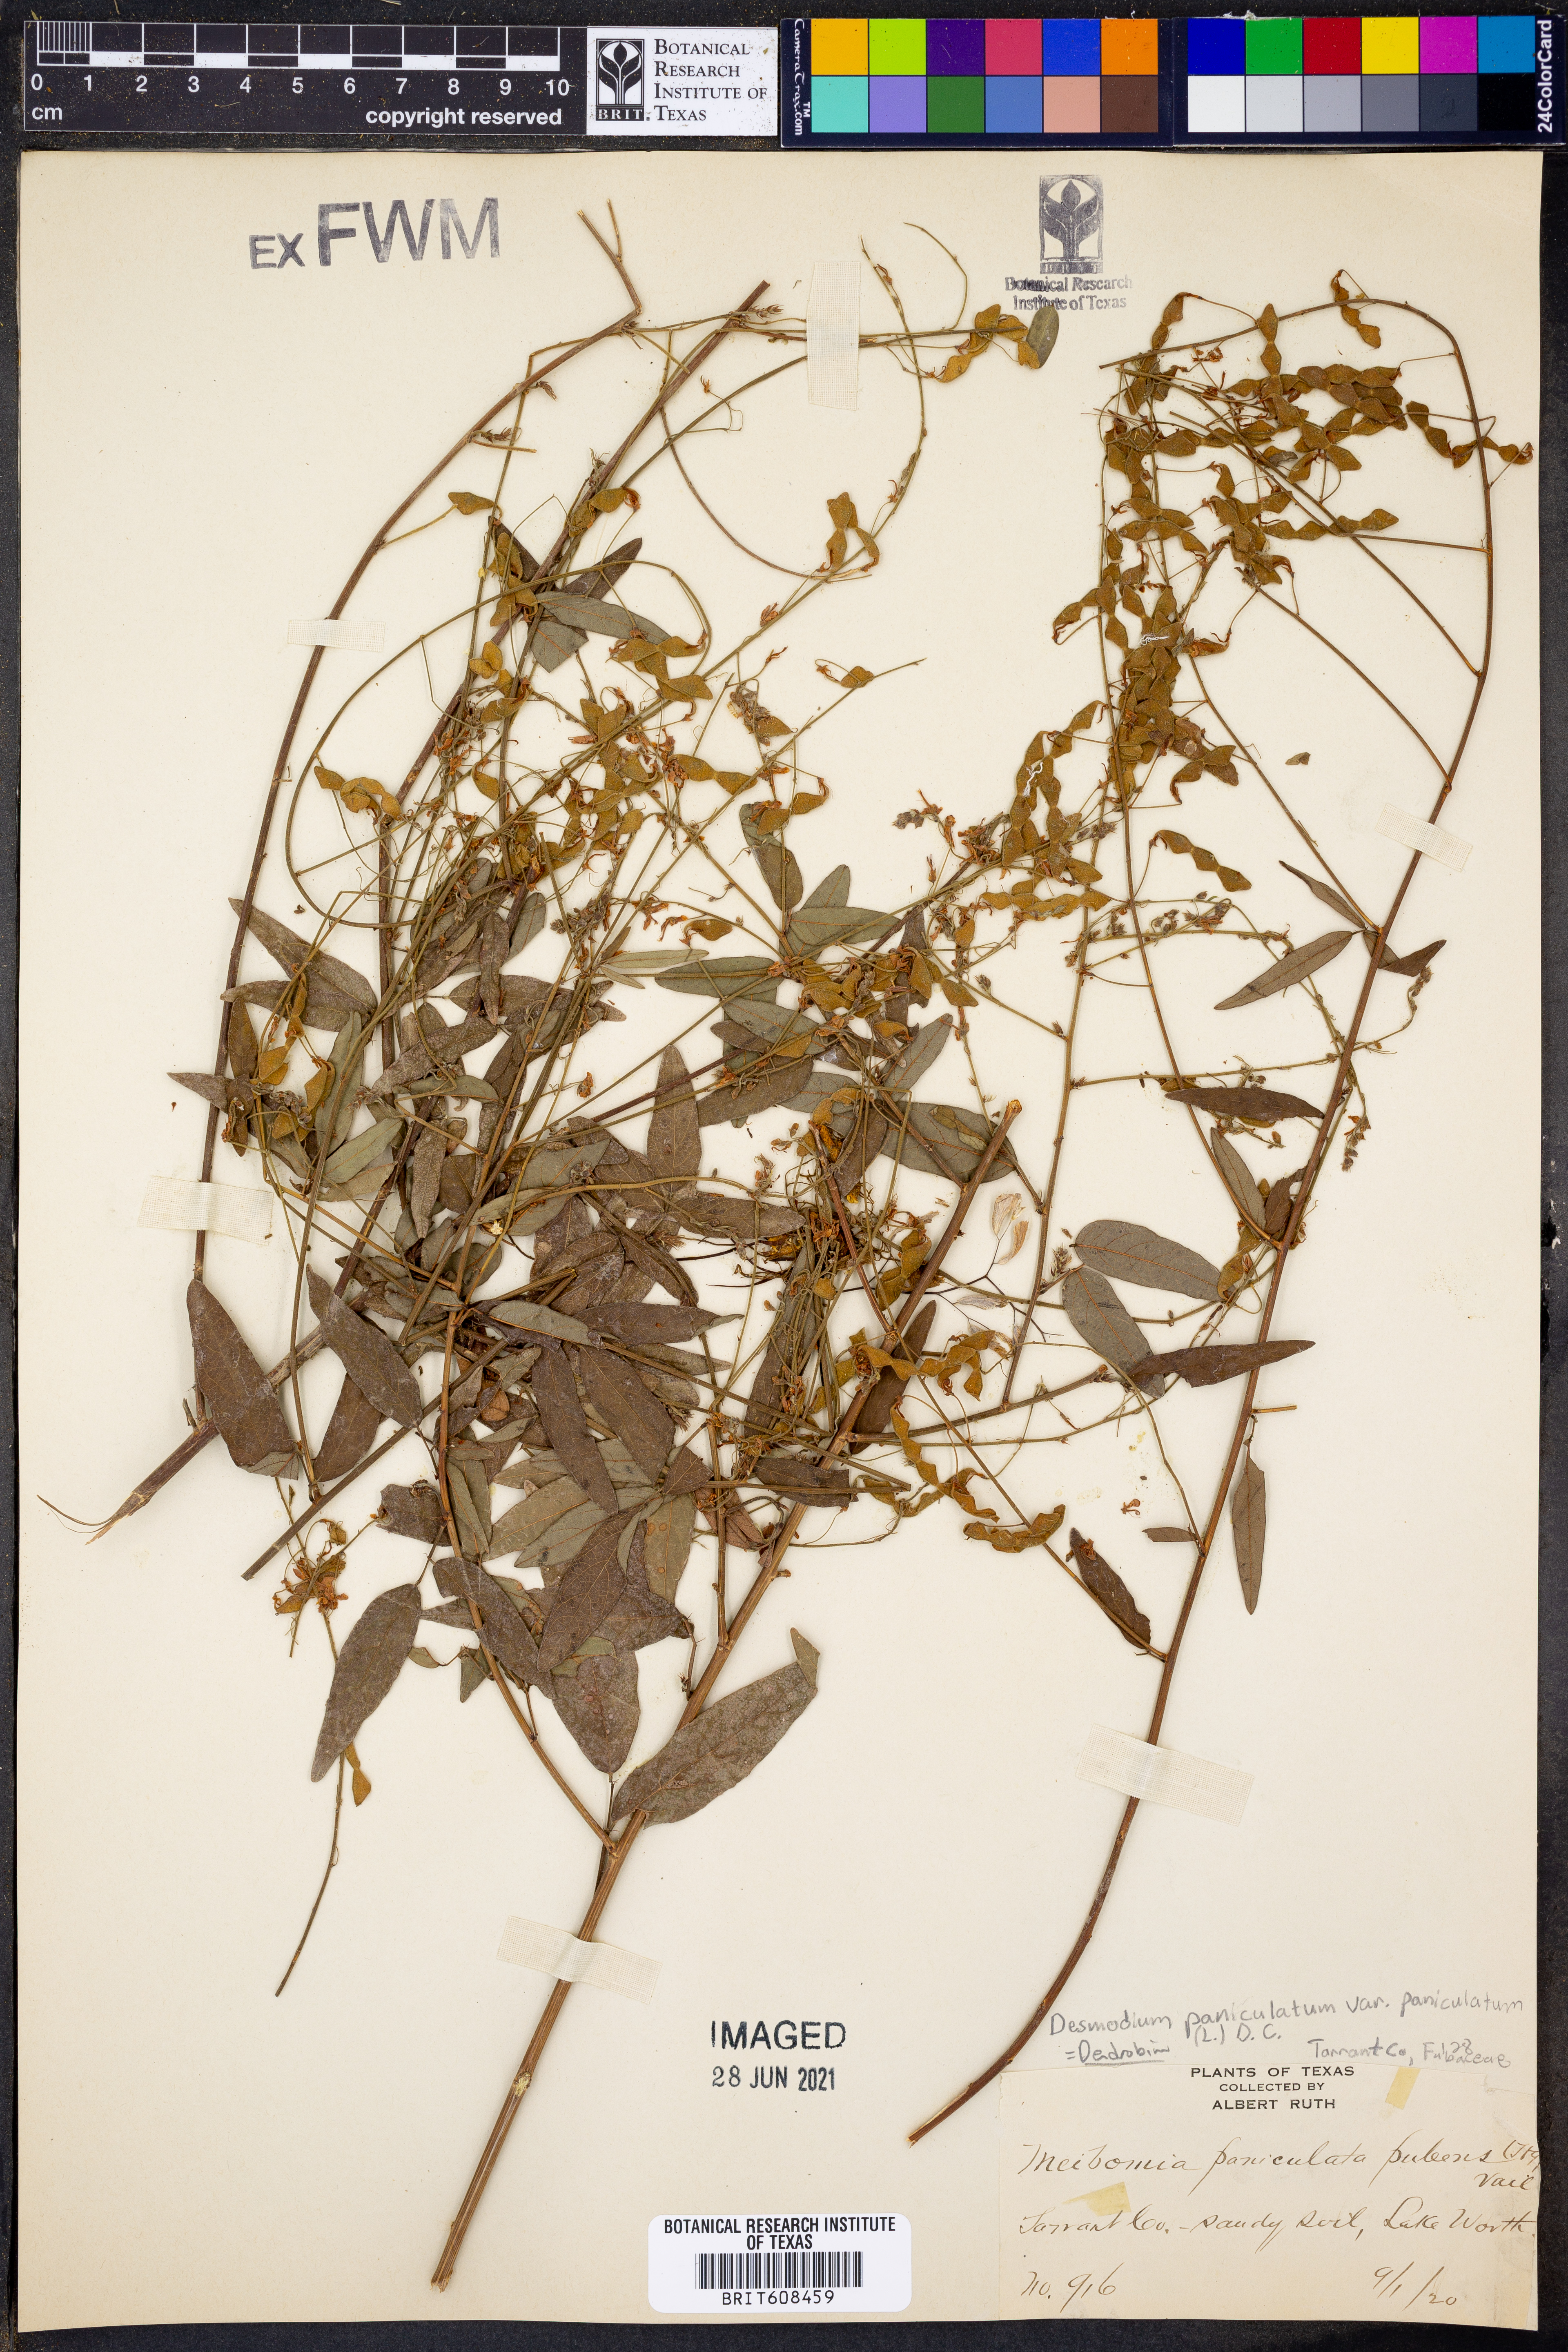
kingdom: Plantae
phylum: Tracheophyta
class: Magnoliopsida
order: Fabales
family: Fabaceae
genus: Desmodium
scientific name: Desmodium paniculatum
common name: Panicled tick-clover
